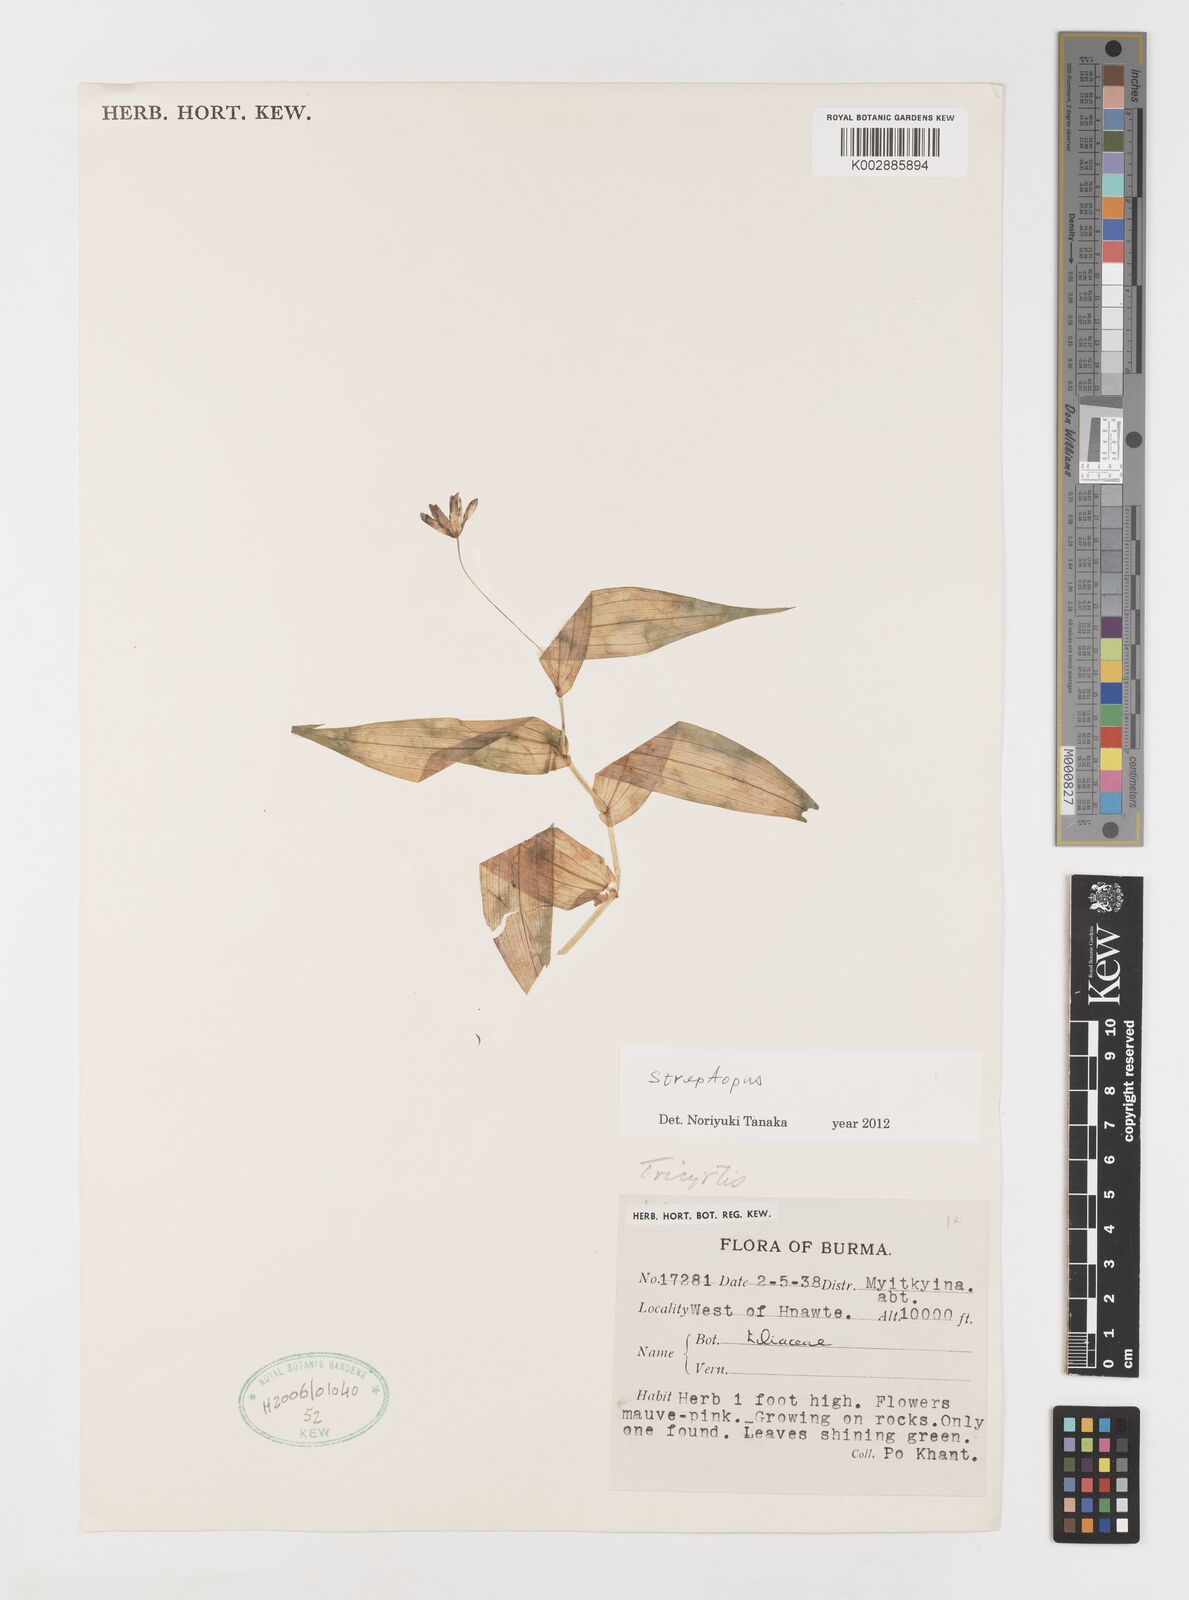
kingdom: Plantae
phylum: Tracheophyta
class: Liliopsida
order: Liliales
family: Liliaceae
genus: Streptopus
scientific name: Streptopus simplex
